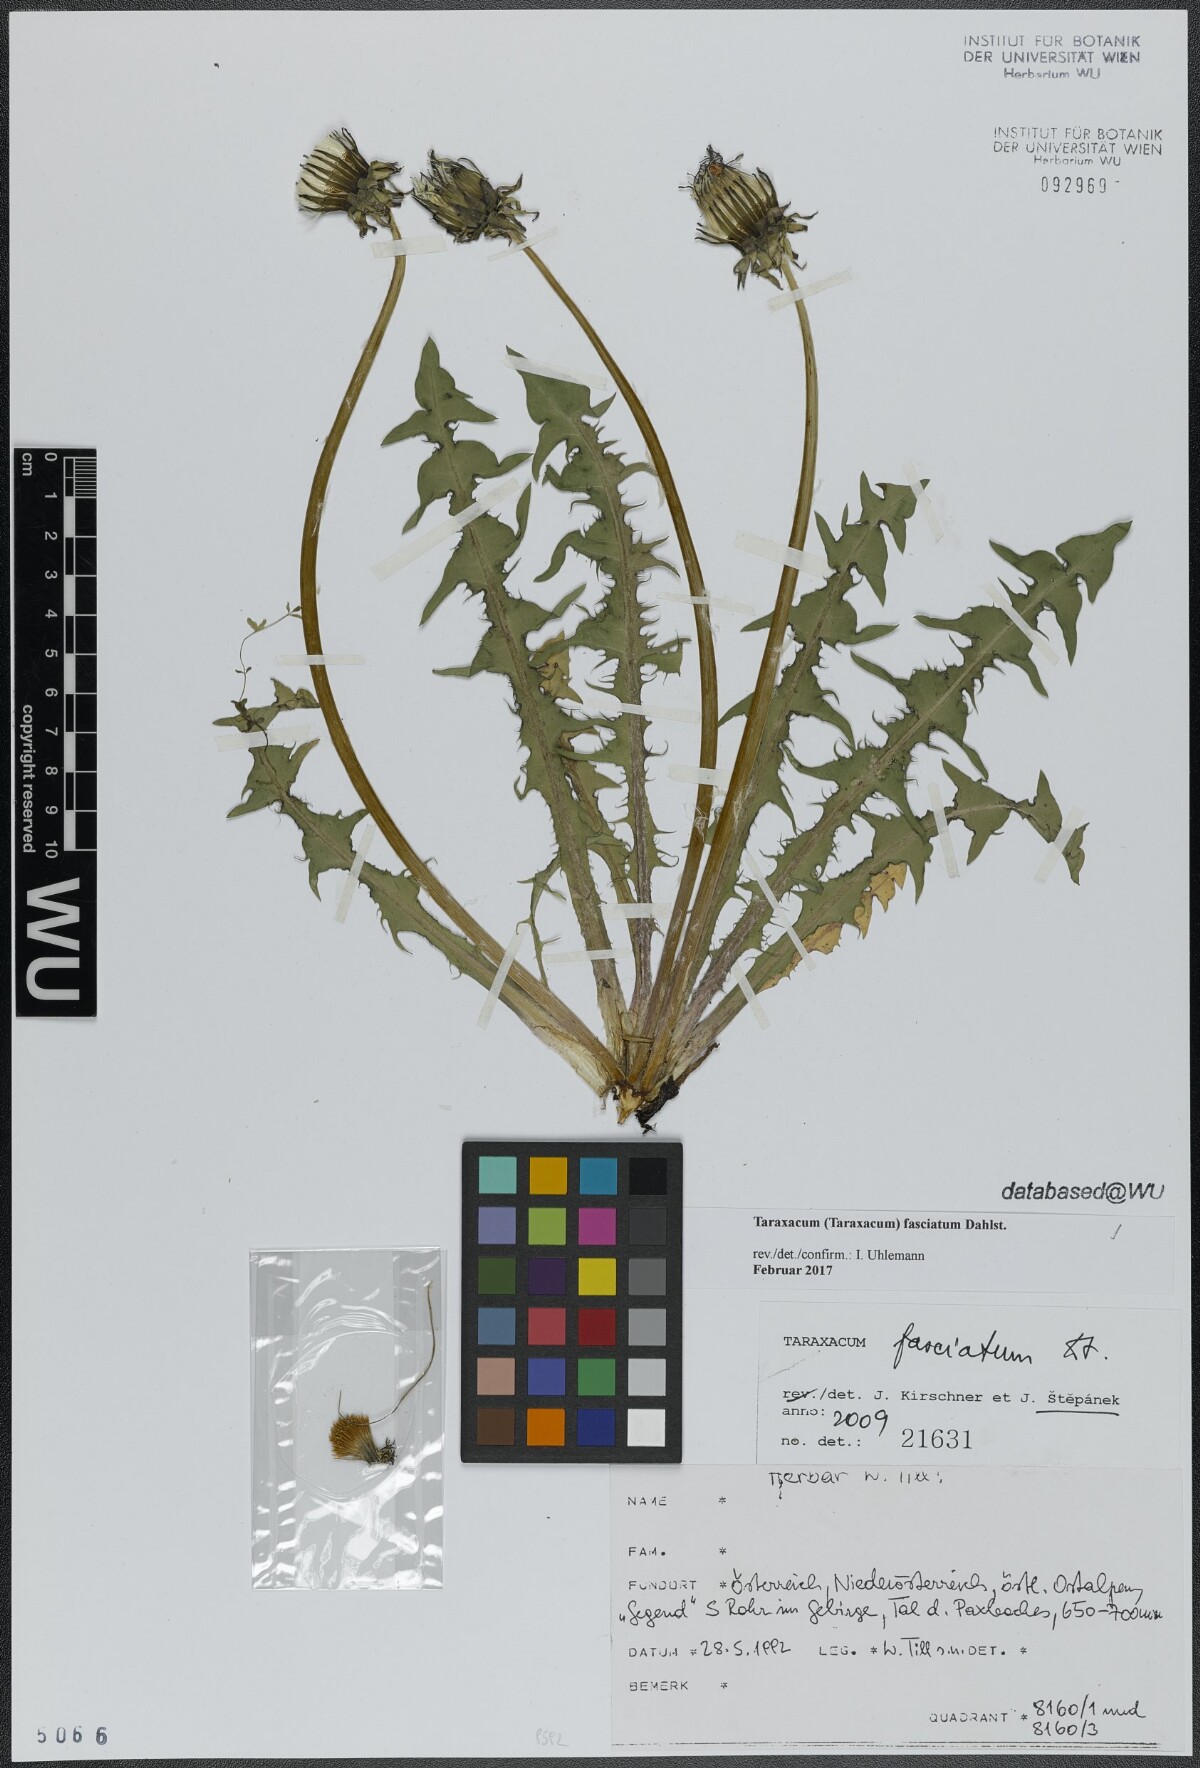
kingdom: Plantae
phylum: Tracheophyta
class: Magnoliopsida
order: Asterales
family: Asteraceae
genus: Taraxacum
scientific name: Taraxacum fasciatum
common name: Dense-bracted dandelion
